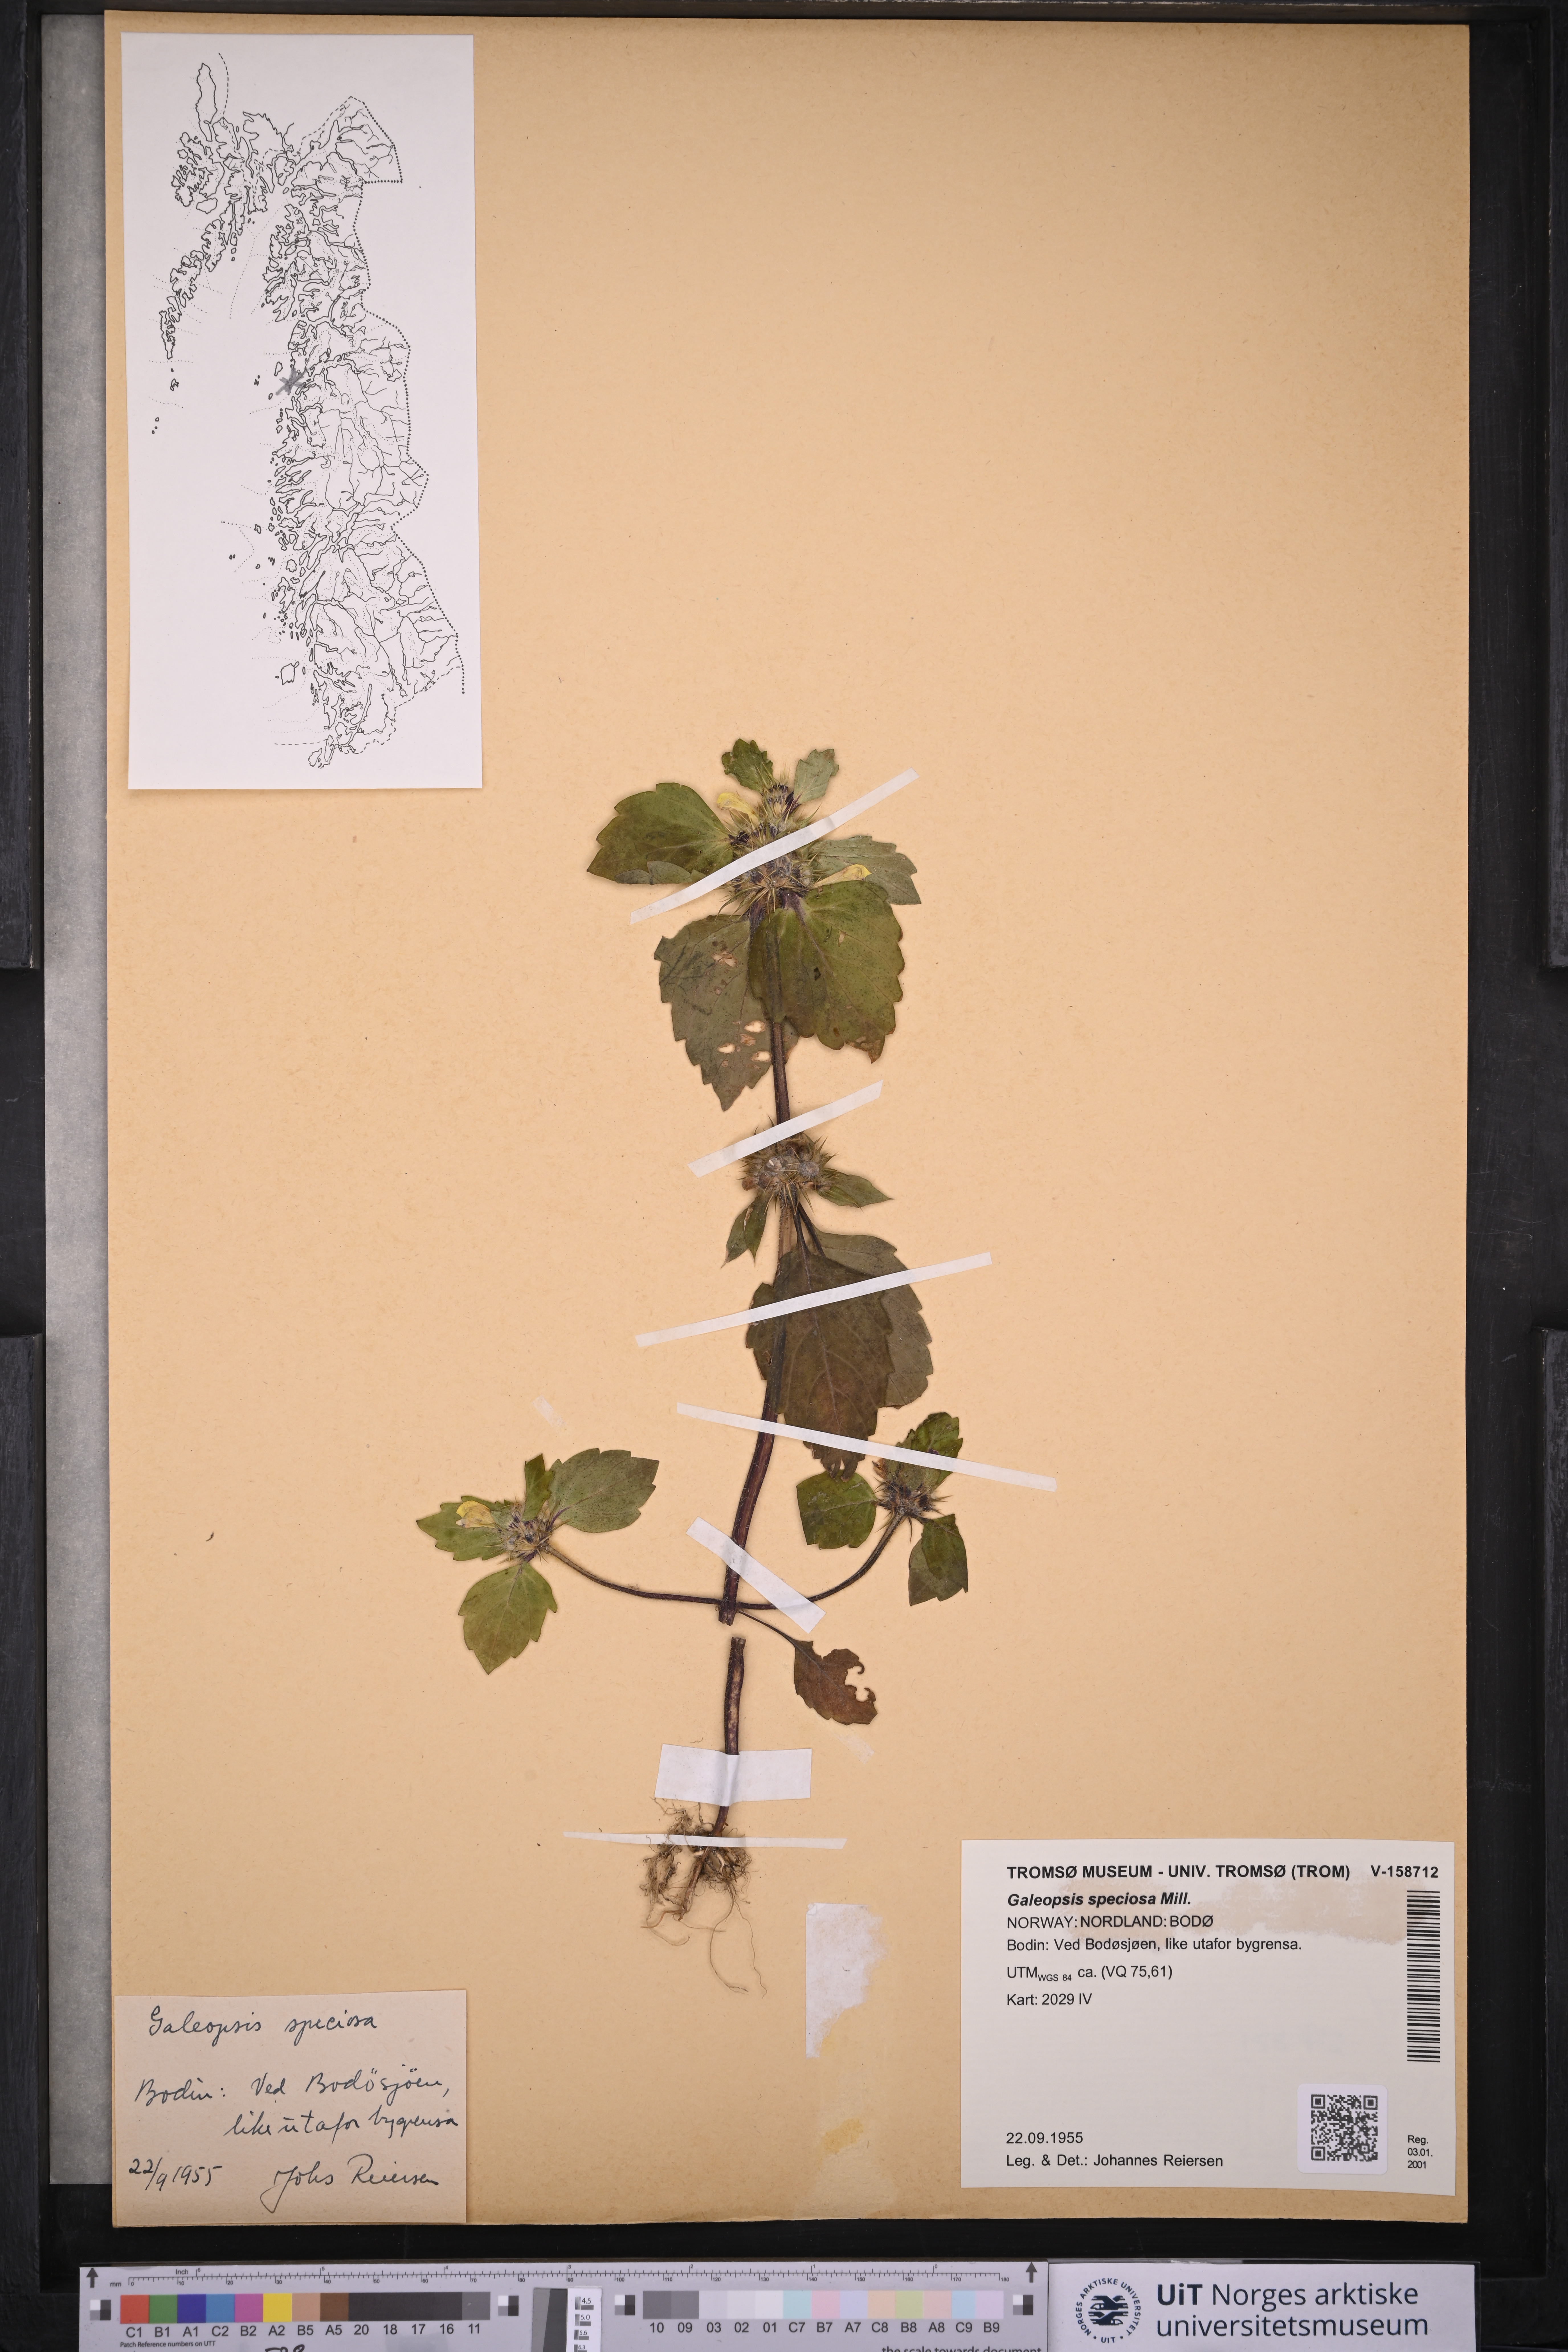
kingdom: Plantae
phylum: Tracheophyta
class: Magnoliopsida
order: Lamiales
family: Lamiaceae
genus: Galeopsis
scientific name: Galeopsis speciosa
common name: Large-flowered hemp-nettle
